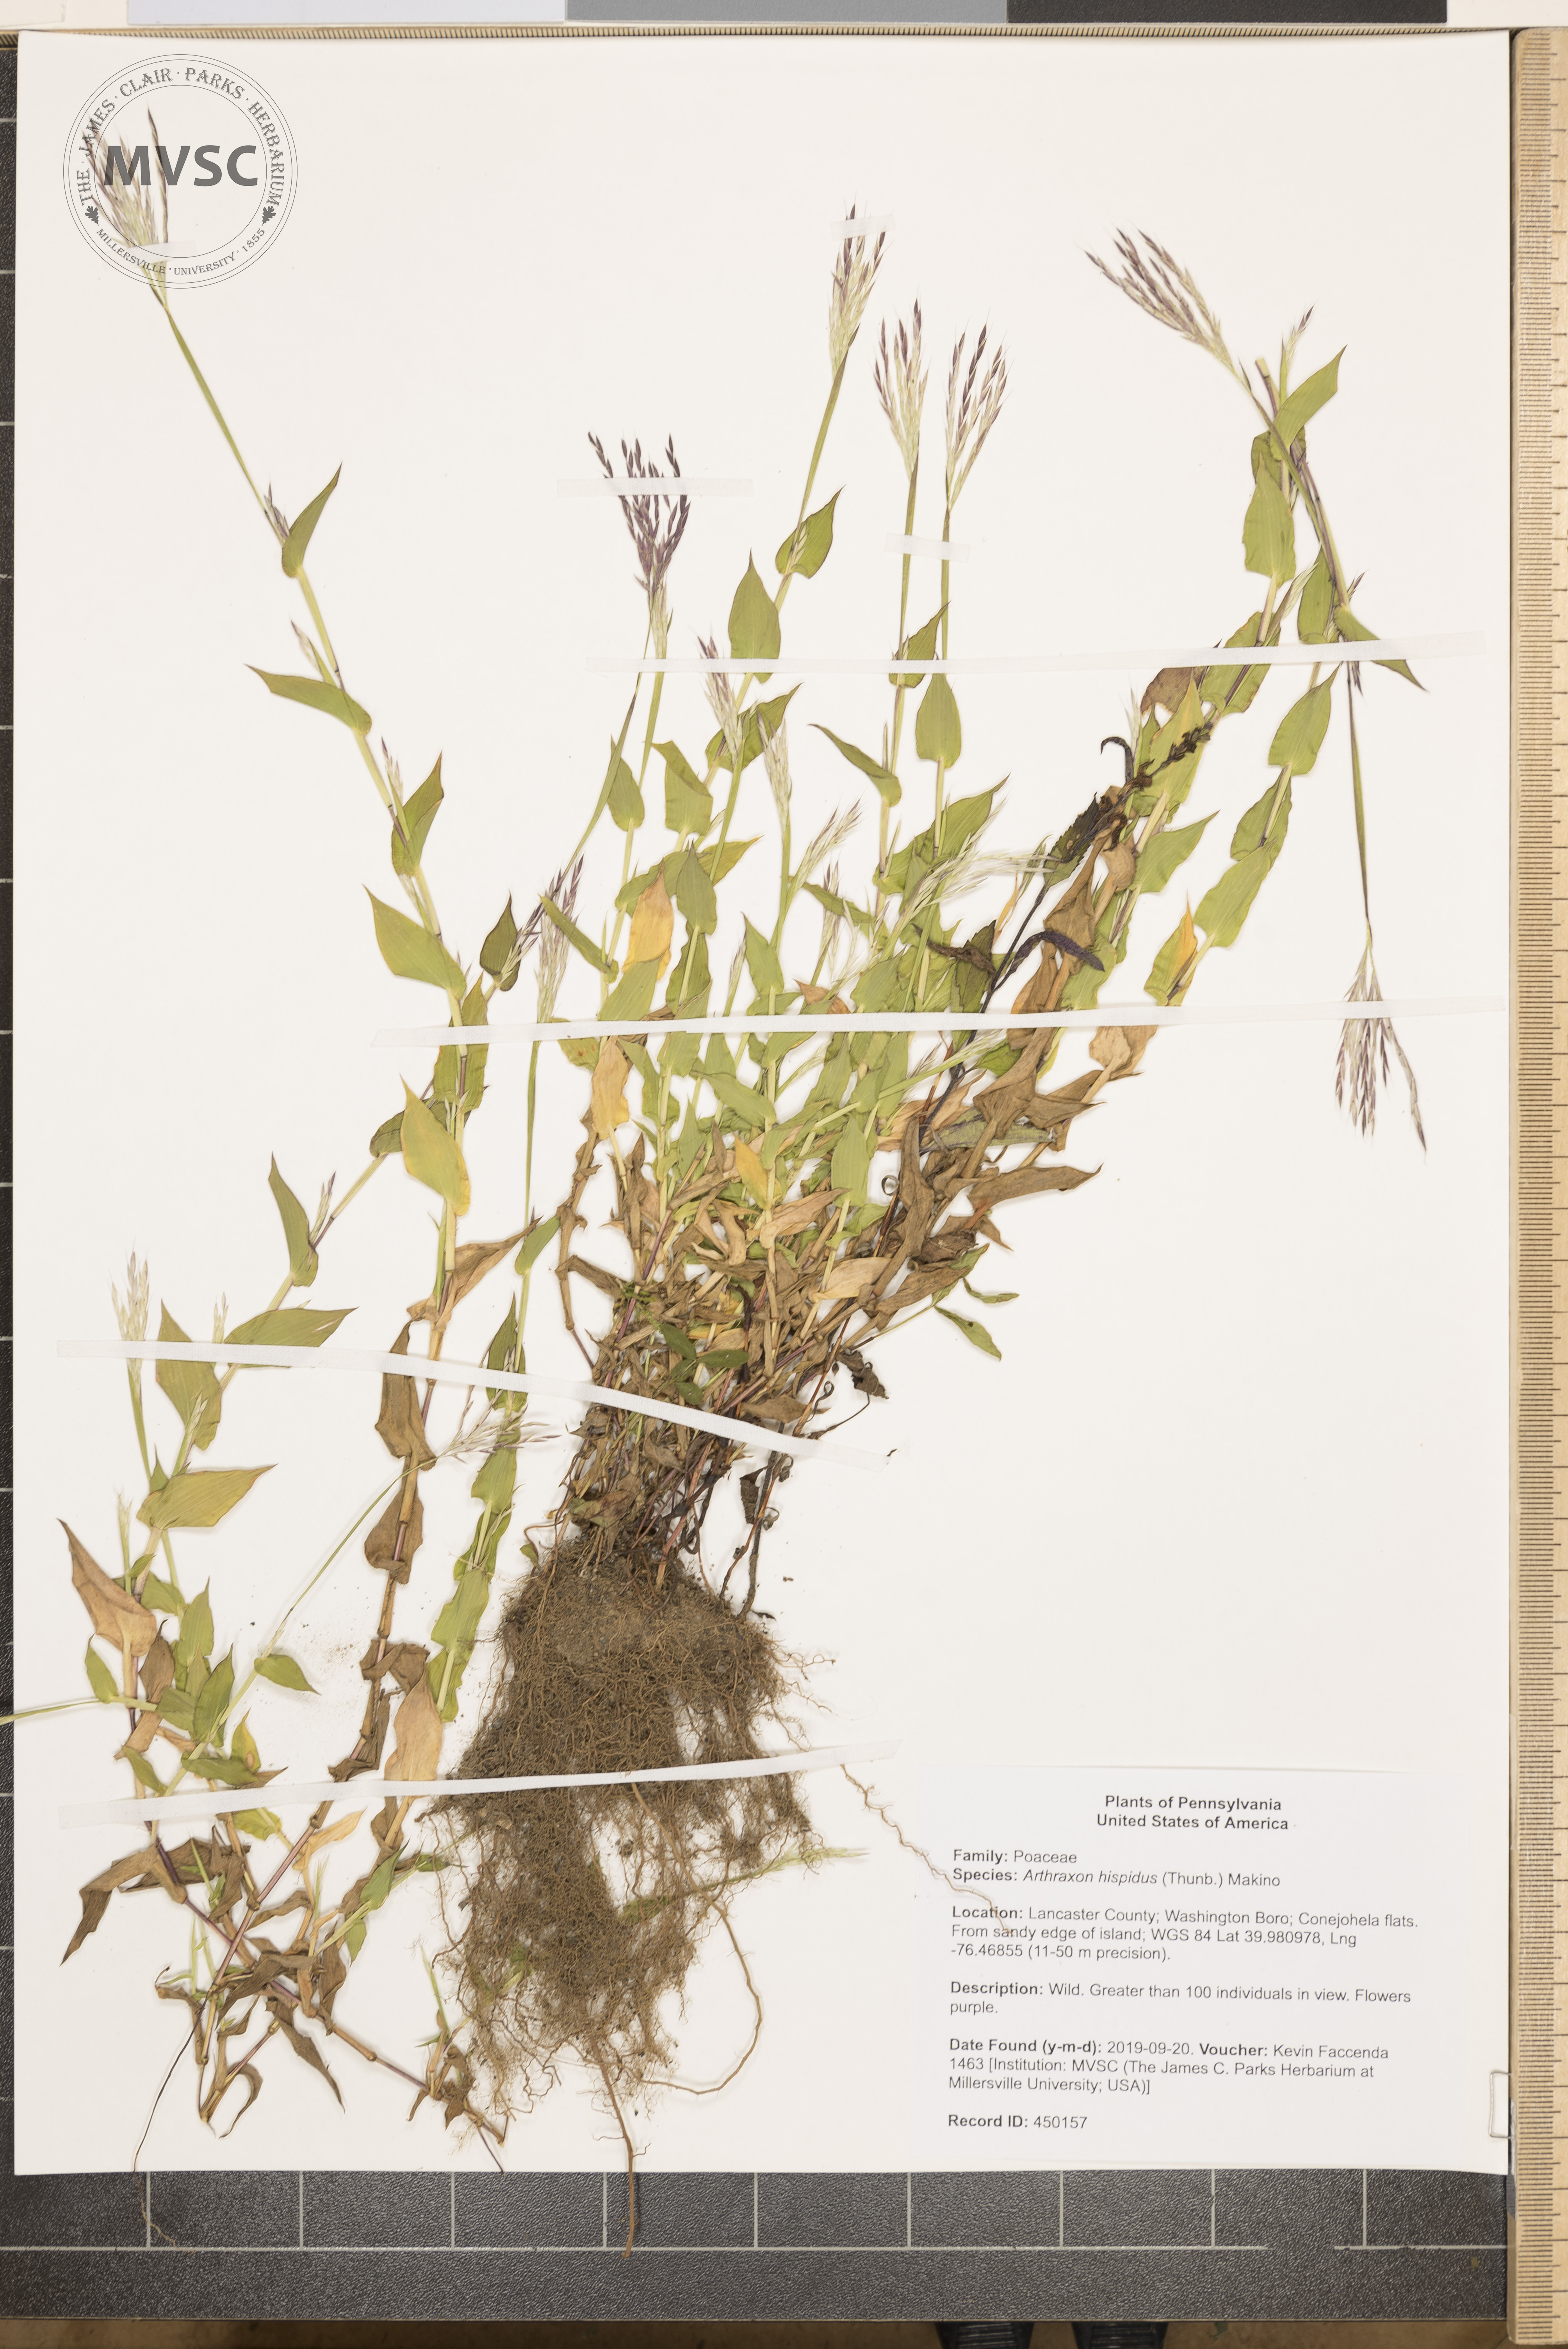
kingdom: Plantae
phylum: Tracheophyta
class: Liliopsida
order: Poales
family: Poaceae
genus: Arthraxon
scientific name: Arthraxon hispidus
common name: Small carpgrass
